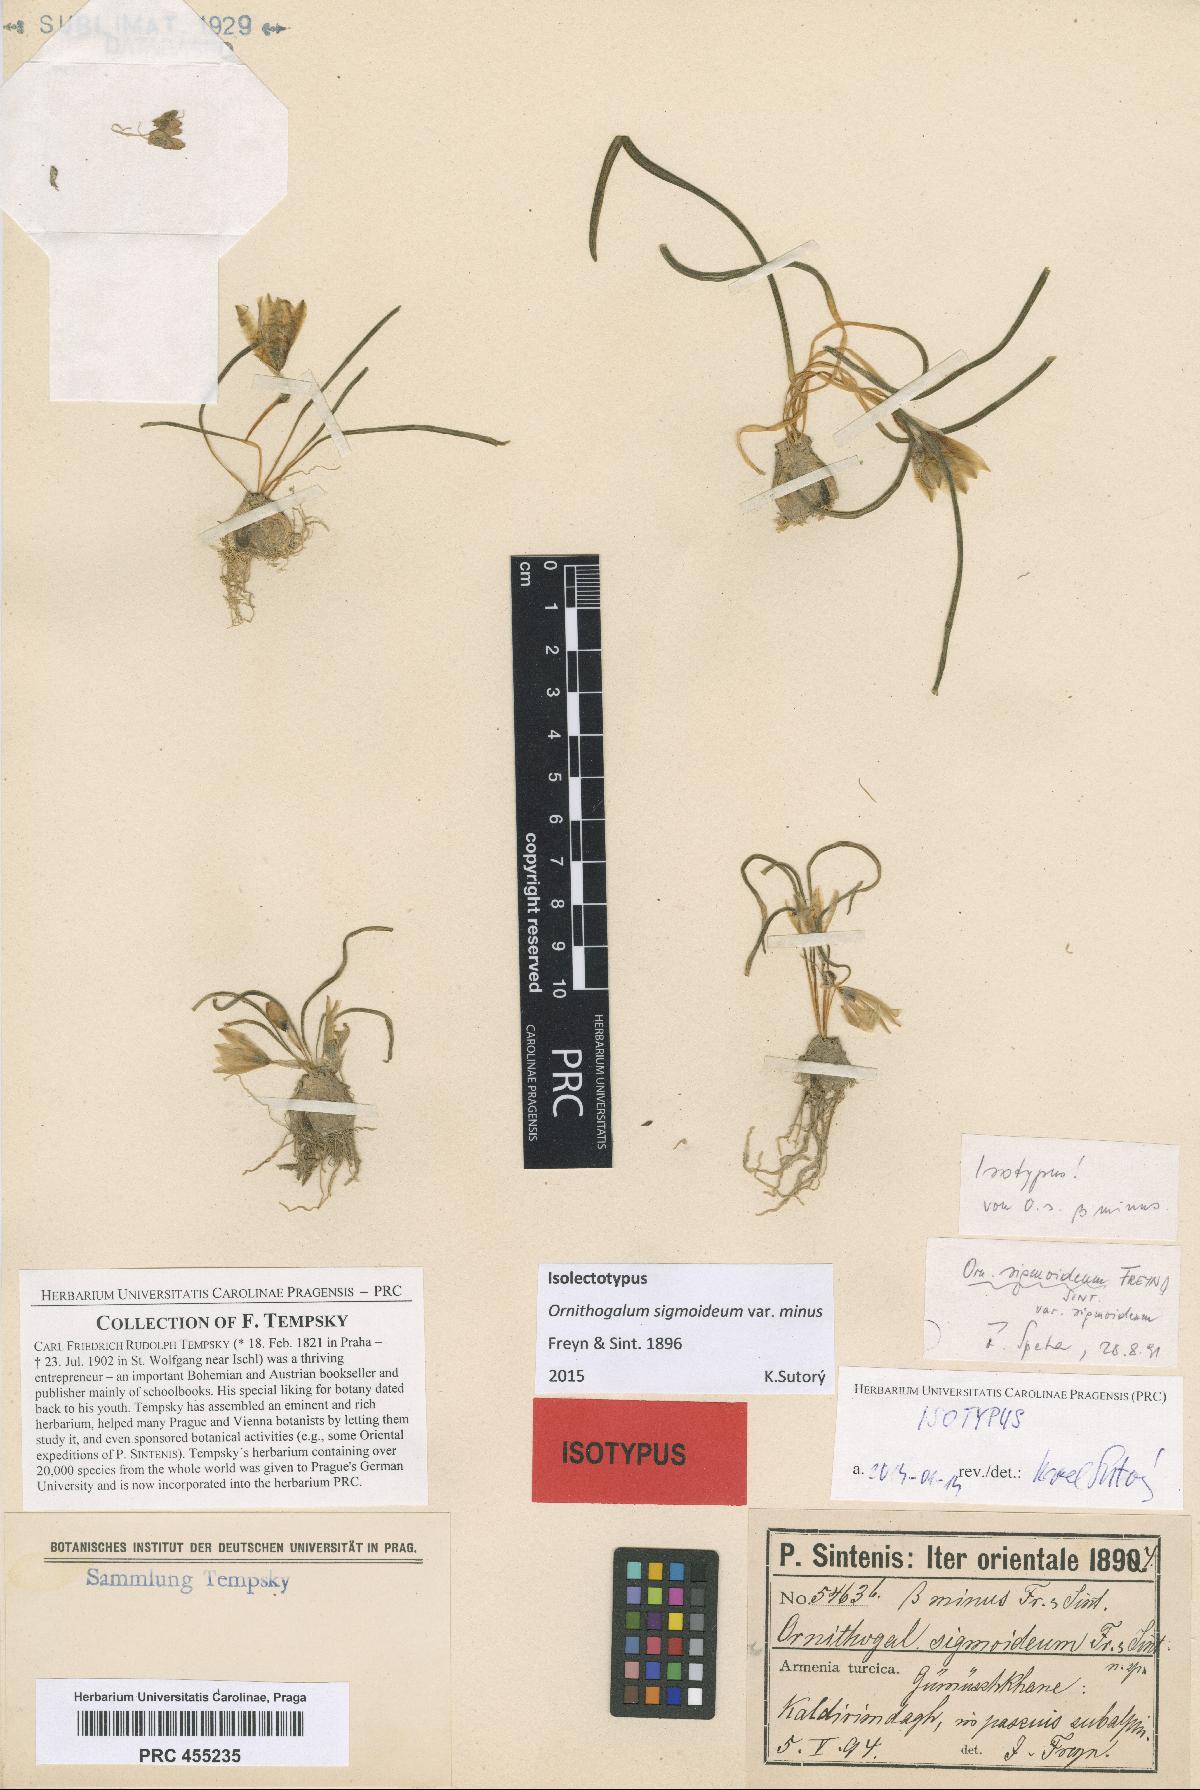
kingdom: Plantae
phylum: Tracheophyta
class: Liliopsida
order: Asparagales
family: Asparagaceae
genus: Ornithogalum
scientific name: Ornithogalum sigmoideum
